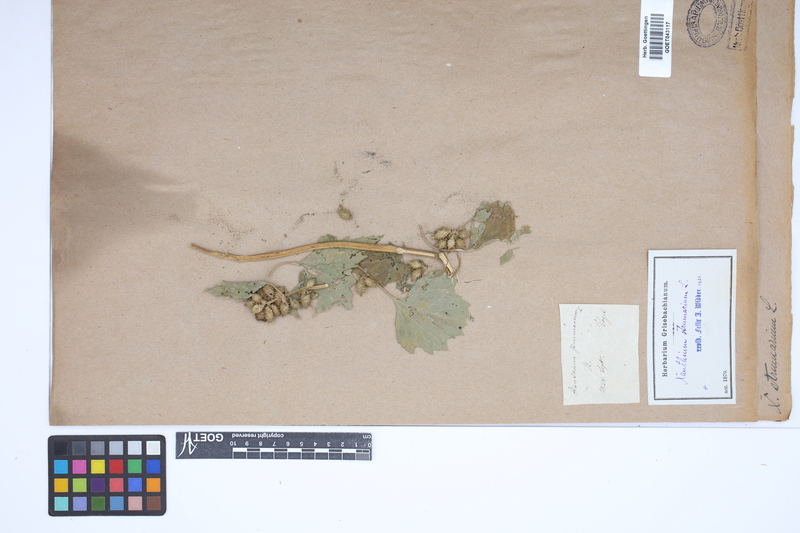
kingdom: Plantae
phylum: Tracheophyta
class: Magnoliopsida
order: Asterales
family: Asteraceae
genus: Xanthium
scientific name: Xanthium strumarium
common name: Rough cocklebur
